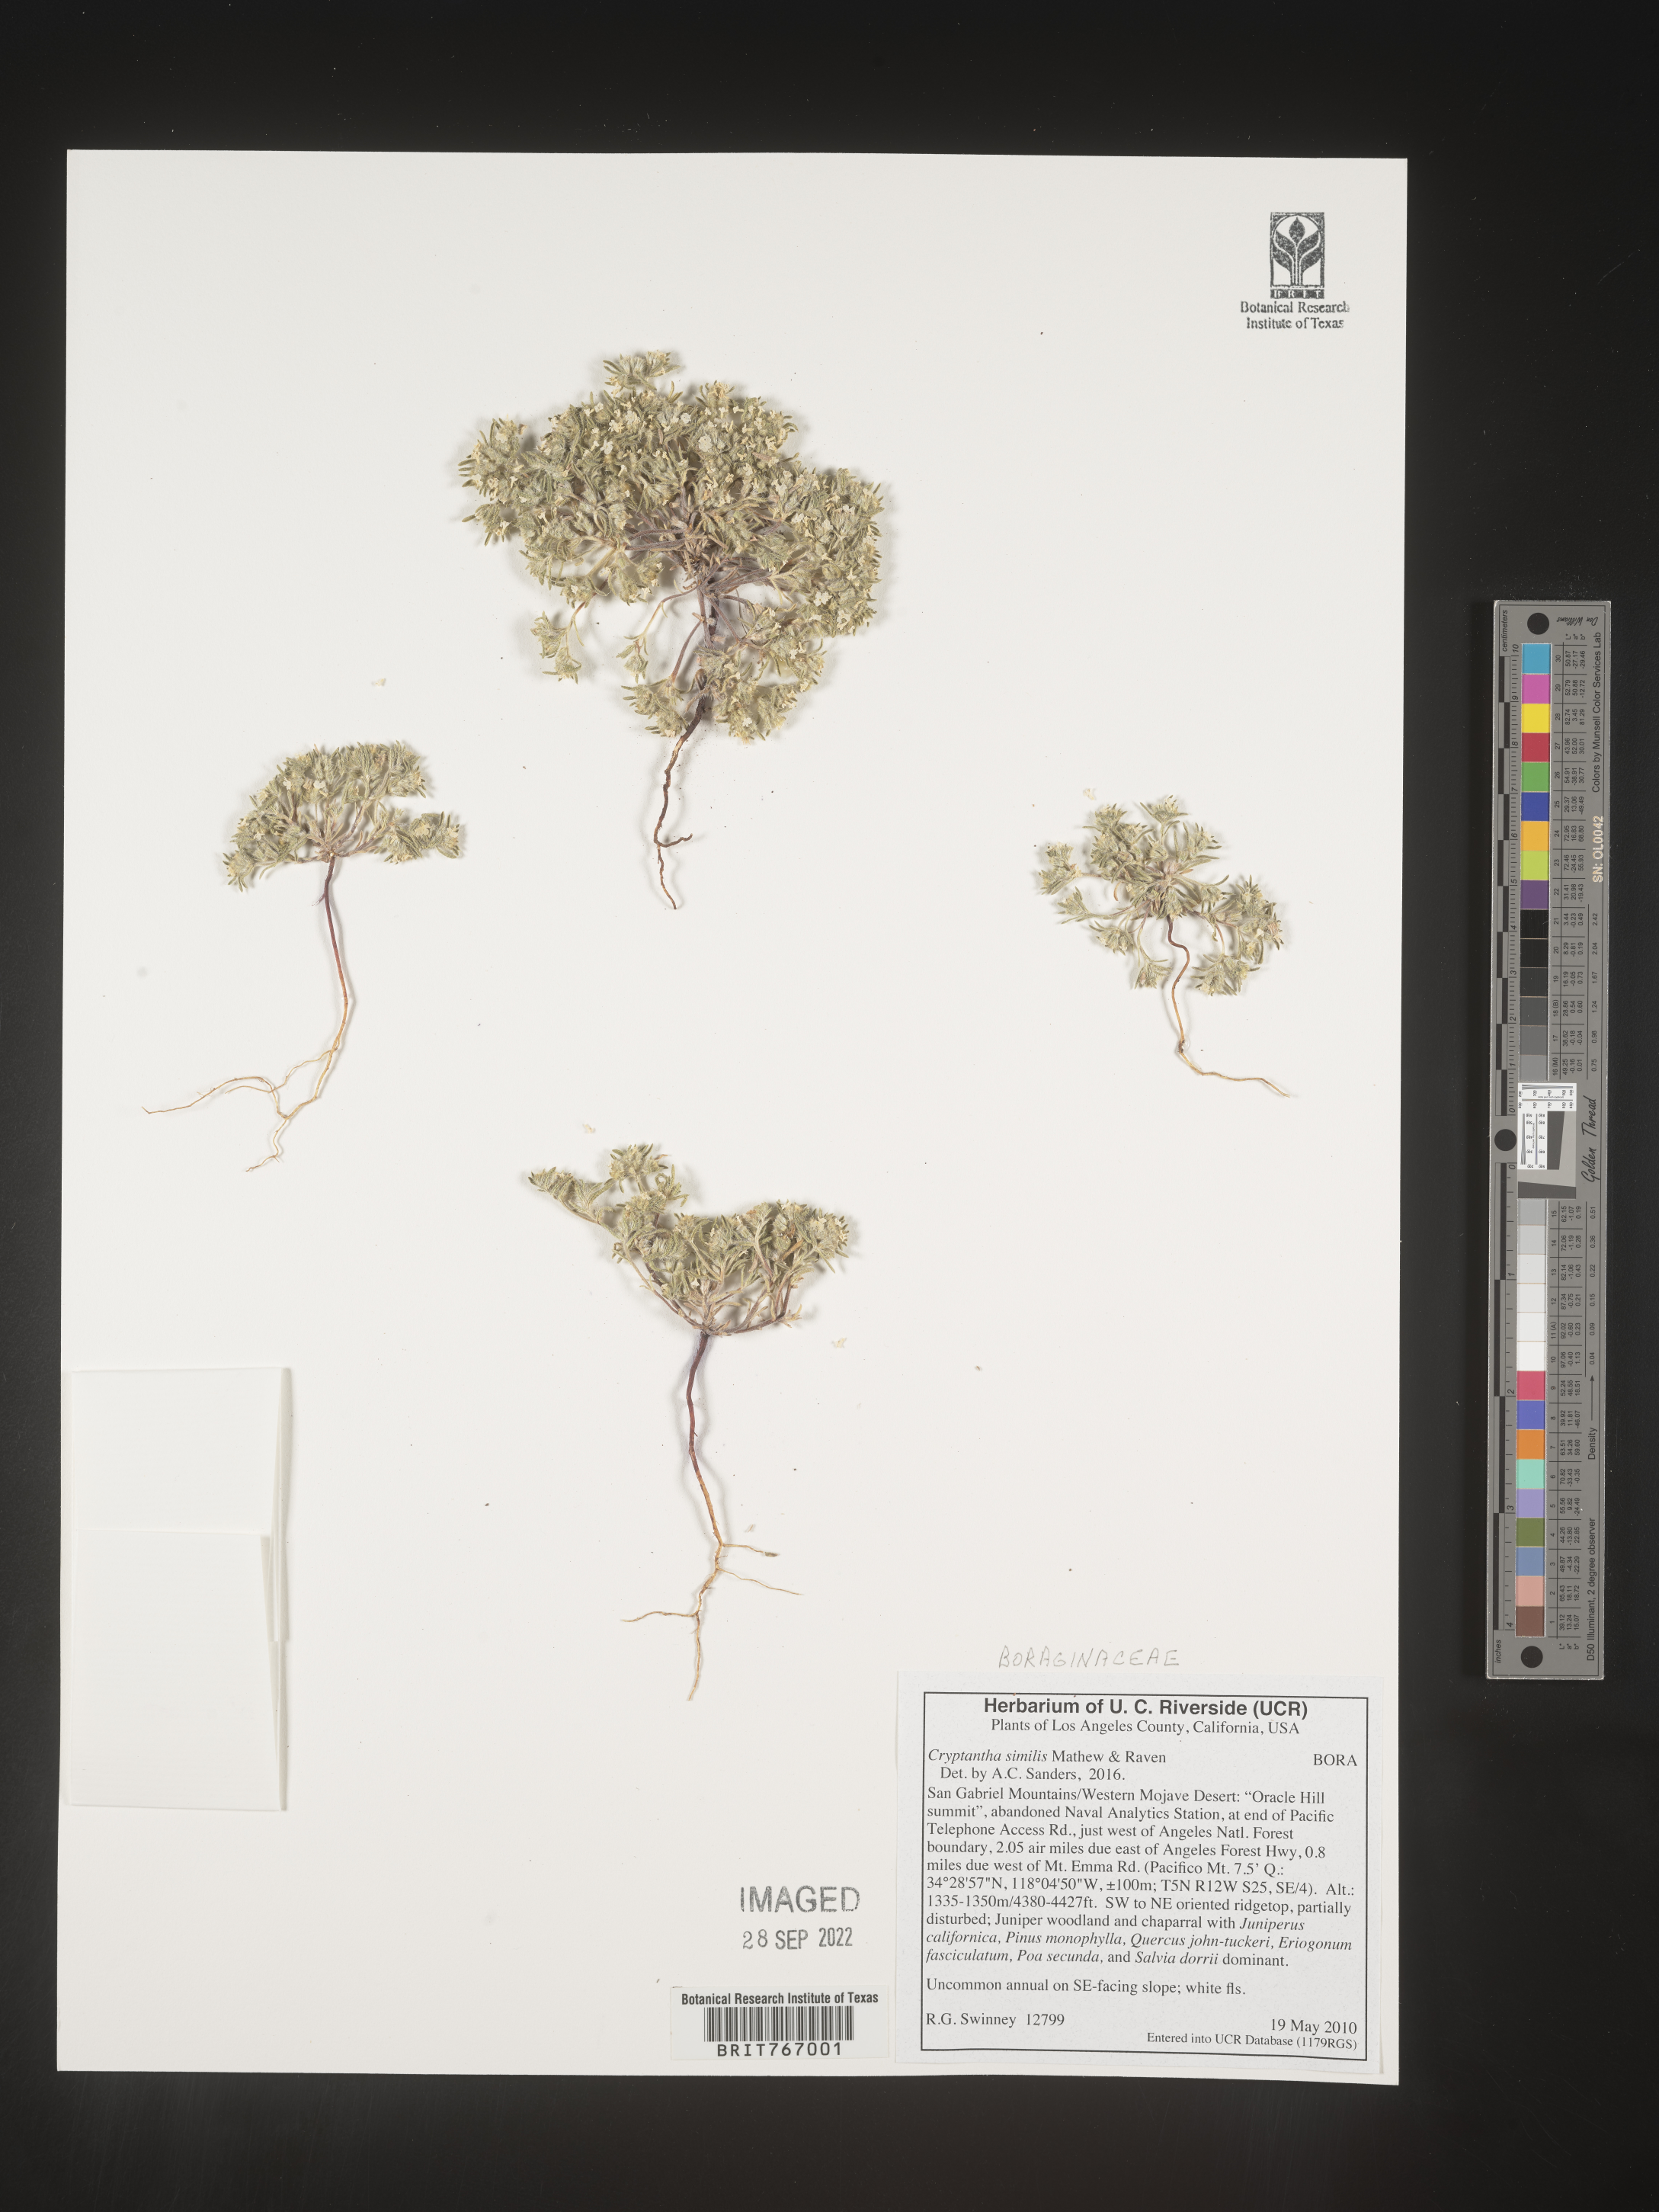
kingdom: Plantae
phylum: Tracheophyta
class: Magnoliopsida
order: Boraginales
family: Boraginaceae
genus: Cryptantha
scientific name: Cryptantha
